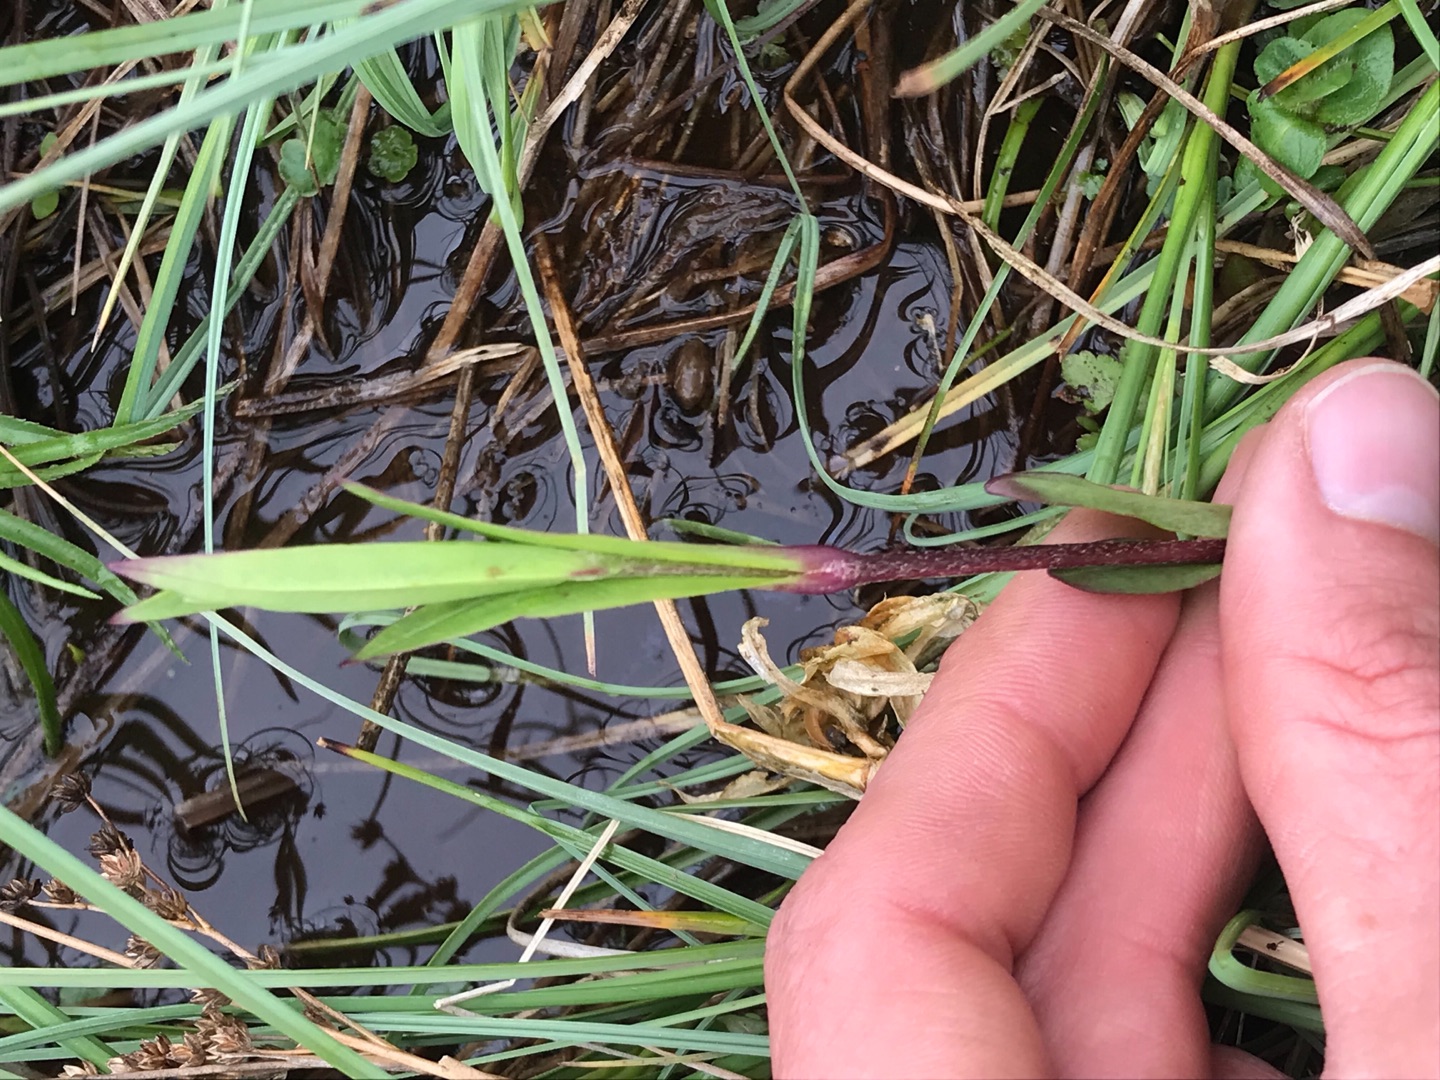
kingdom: Plantae
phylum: Tracheophyta
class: Magnoliopsida
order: Caryophyllales
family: Caryophyllaceae
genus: Silene
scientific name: Silene flos-cuculi
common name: Trævlekrone
